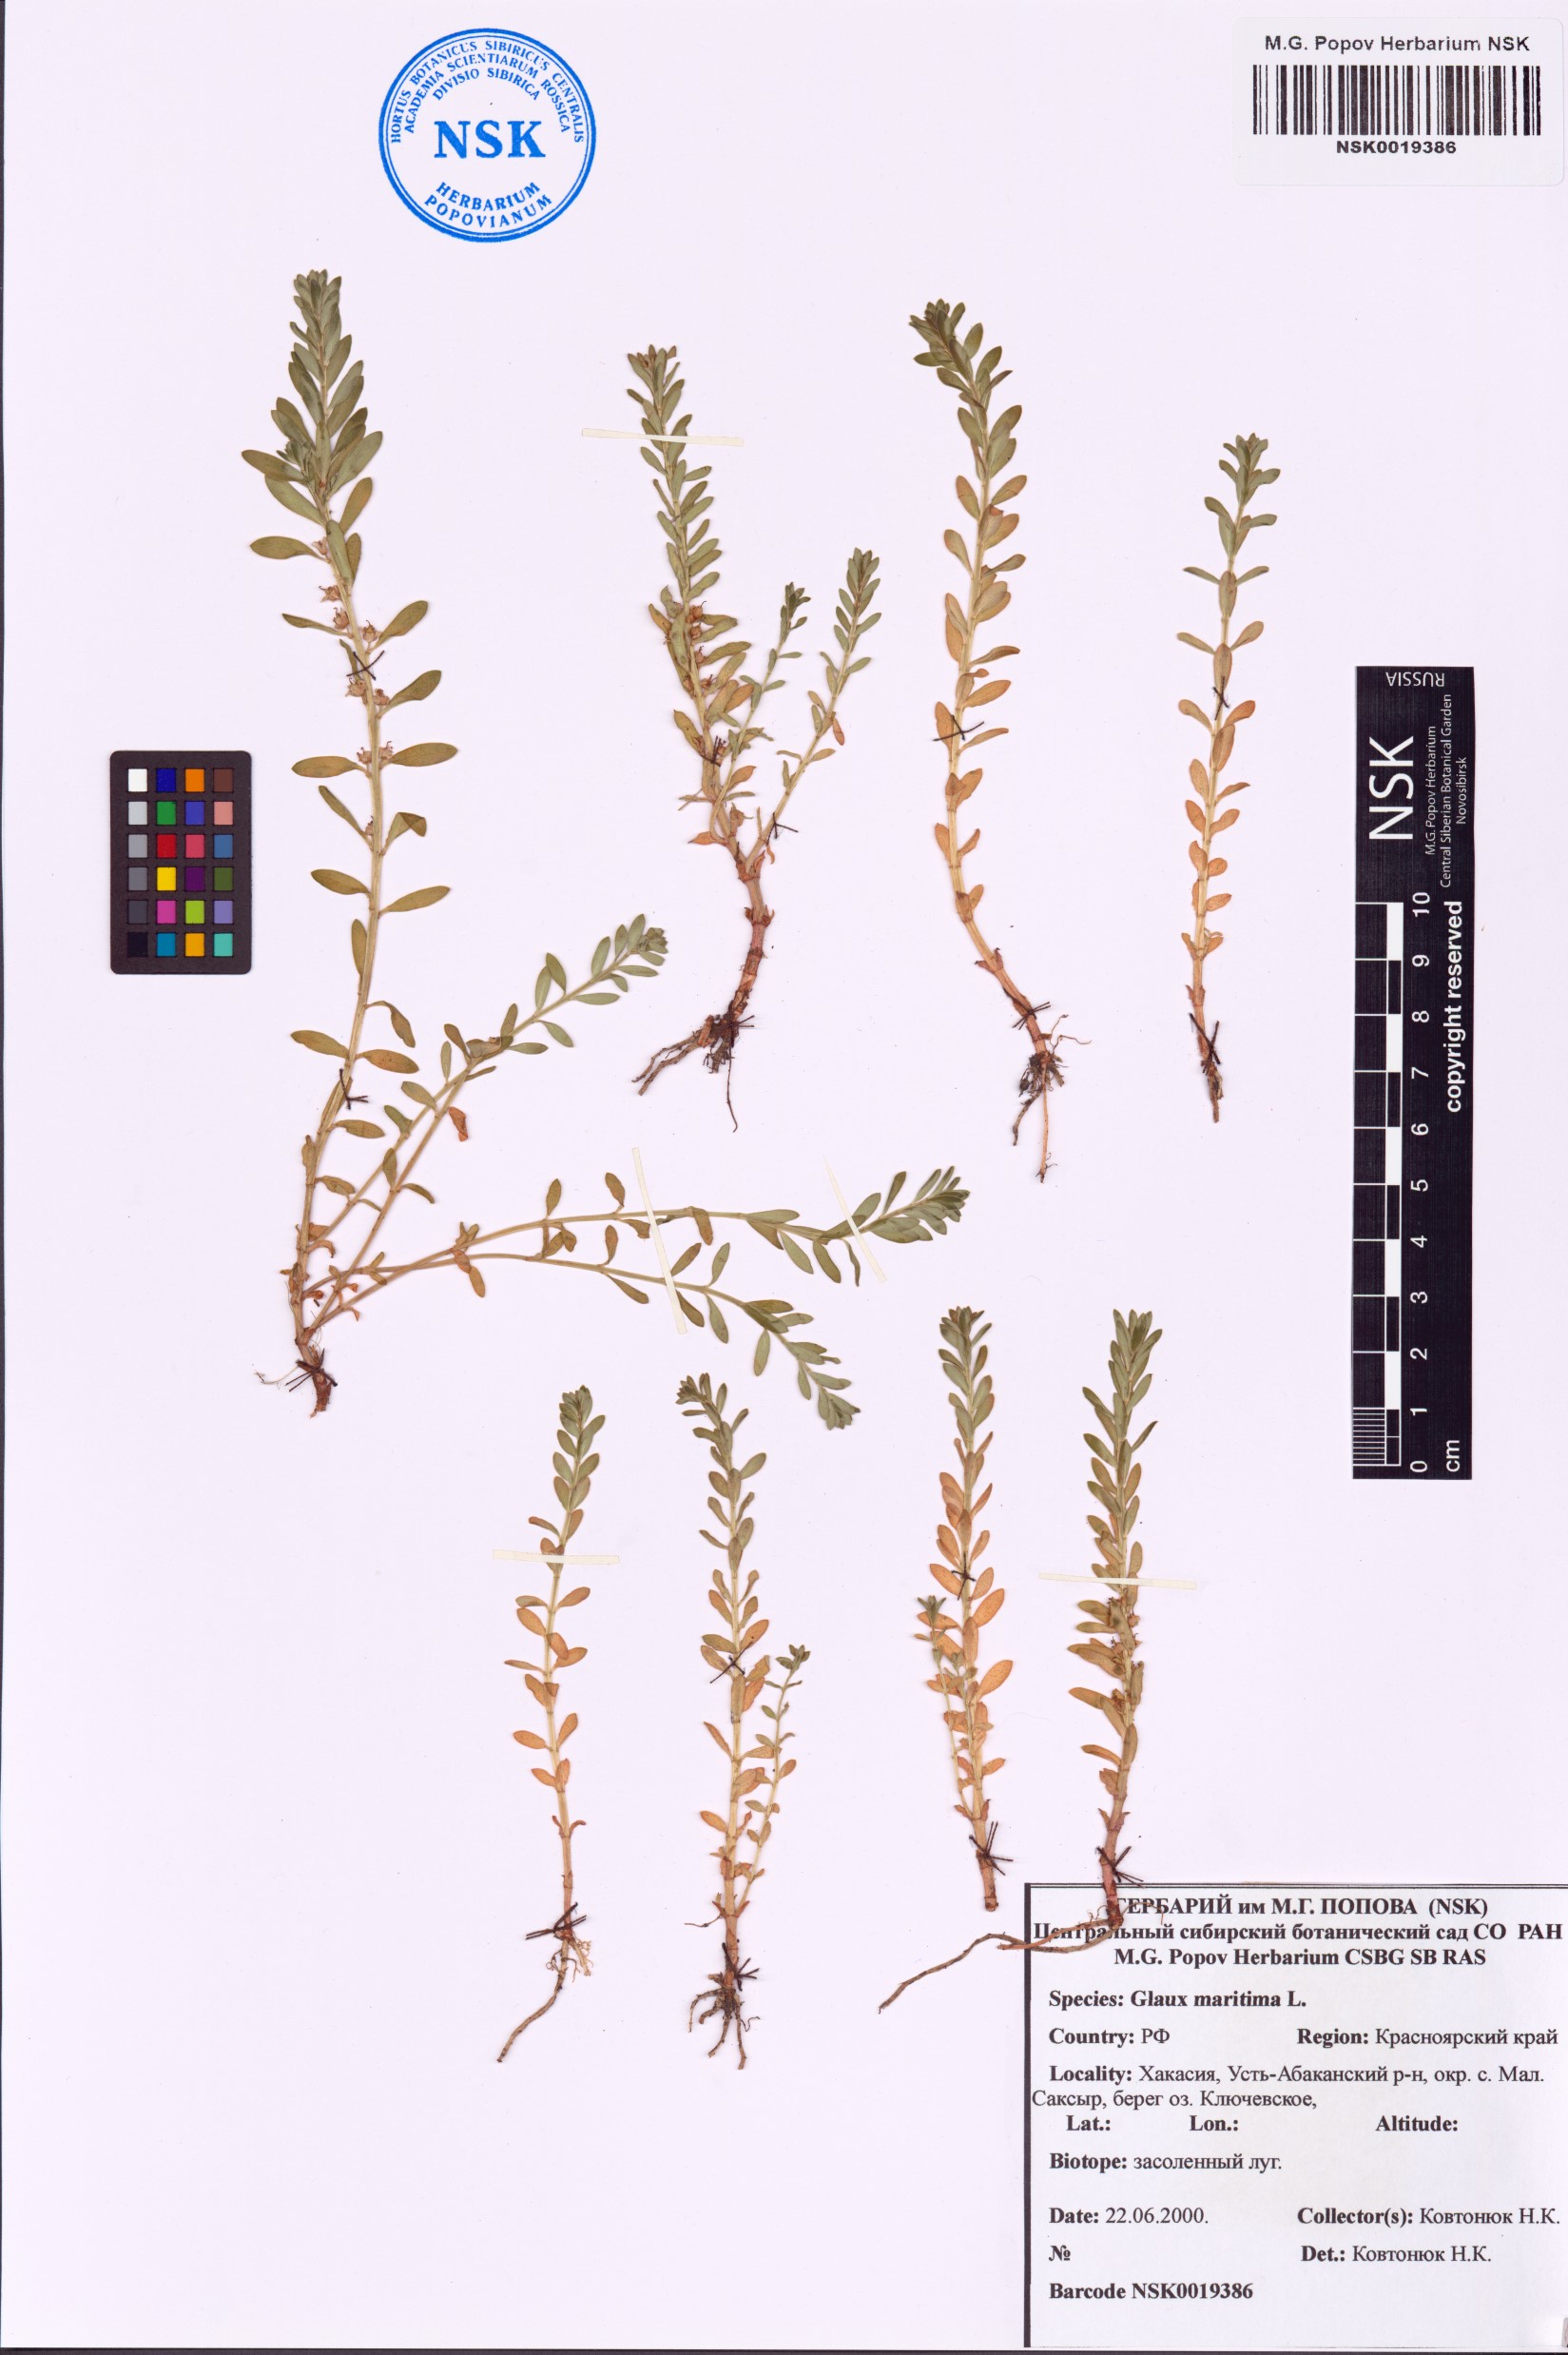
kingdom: Plantae
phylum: Tracheophyta
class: Magnoliopsida
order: Ericales
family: Primulaceae
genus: Lysimachia
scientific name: Lysimachia maritima
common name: Sea milkwort
